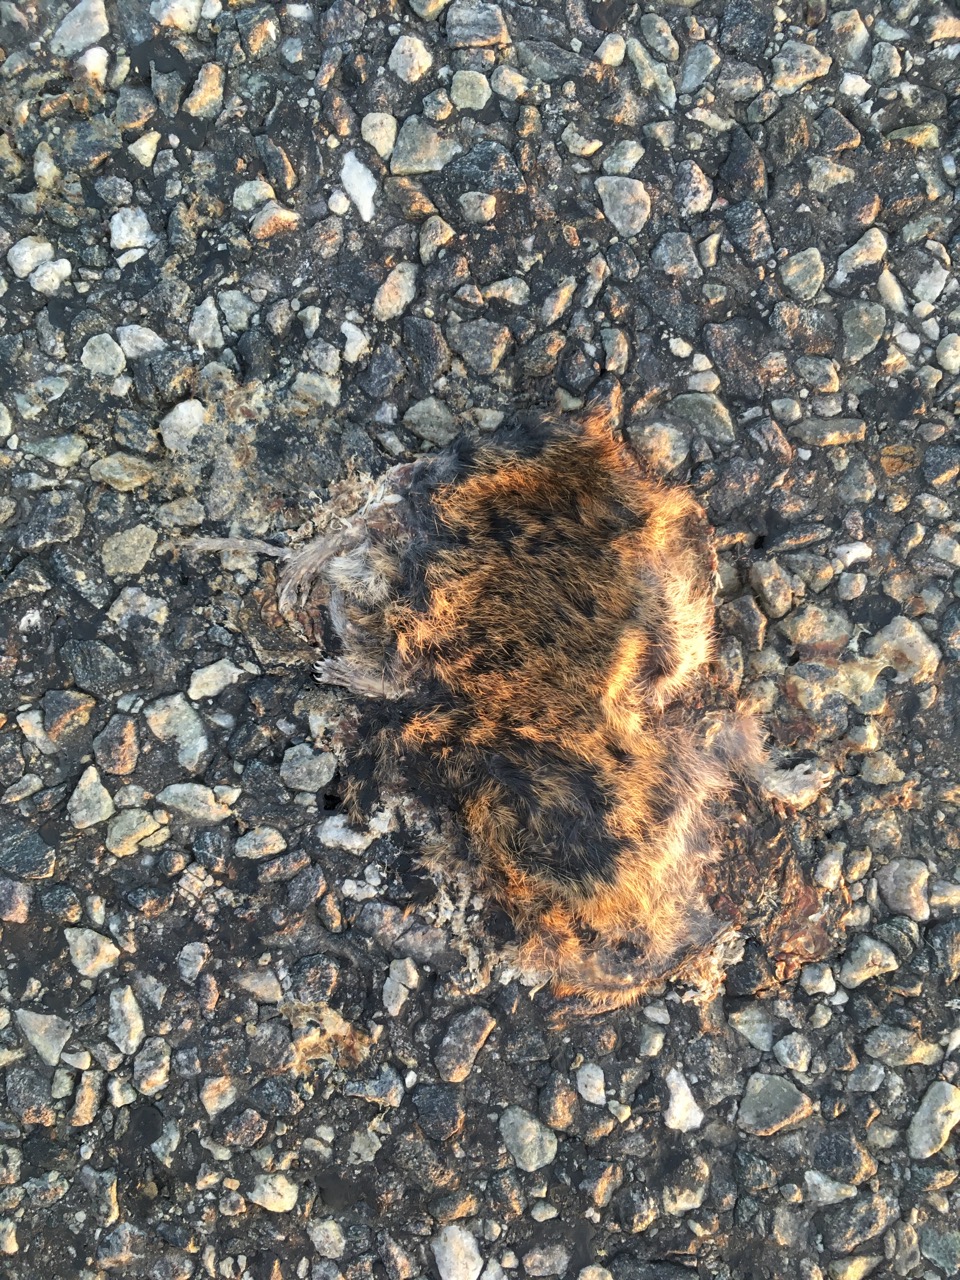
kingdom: Animalia
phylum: Chordata
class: Mammalia
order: Rodentia
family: Cricetidae
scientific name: Cricetidae
